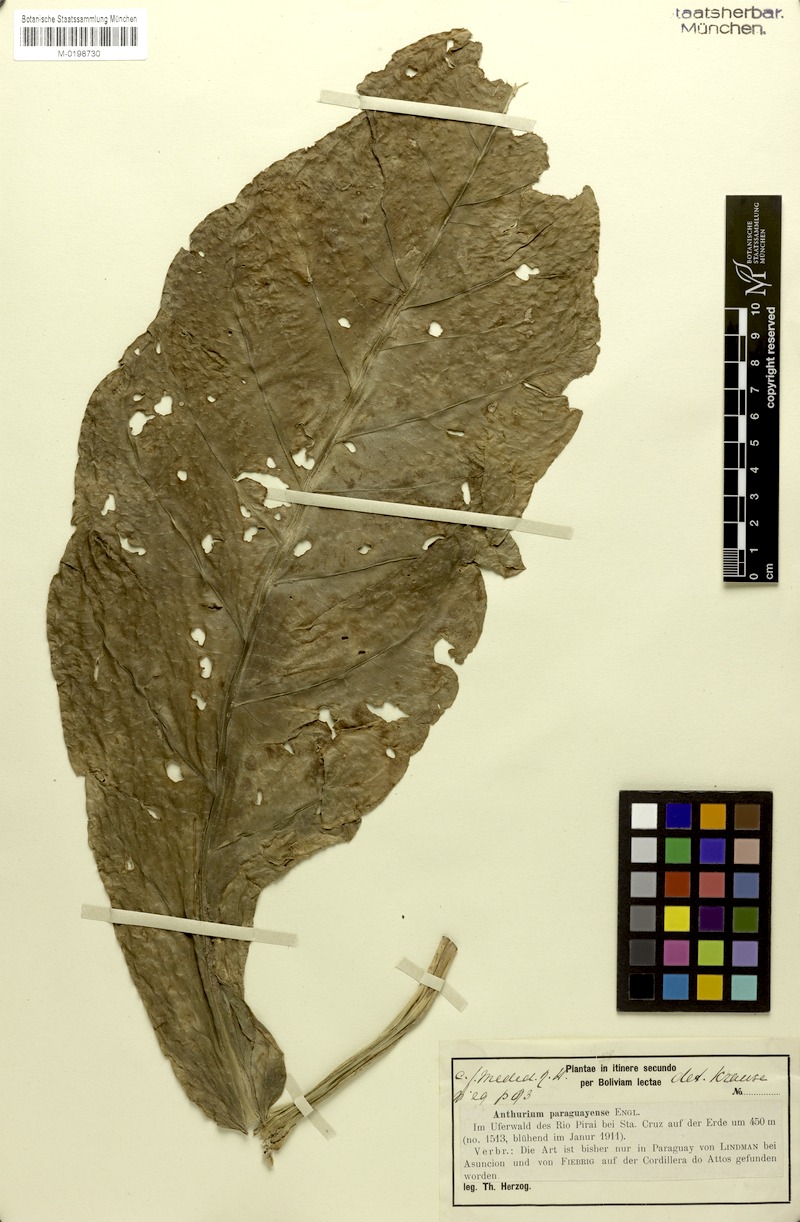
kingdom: Plantae
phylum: Tracheophyta
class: Liliopsida
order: Alismatales
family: Araceae
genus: Anthurium
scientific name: Anthurium paraguayense
